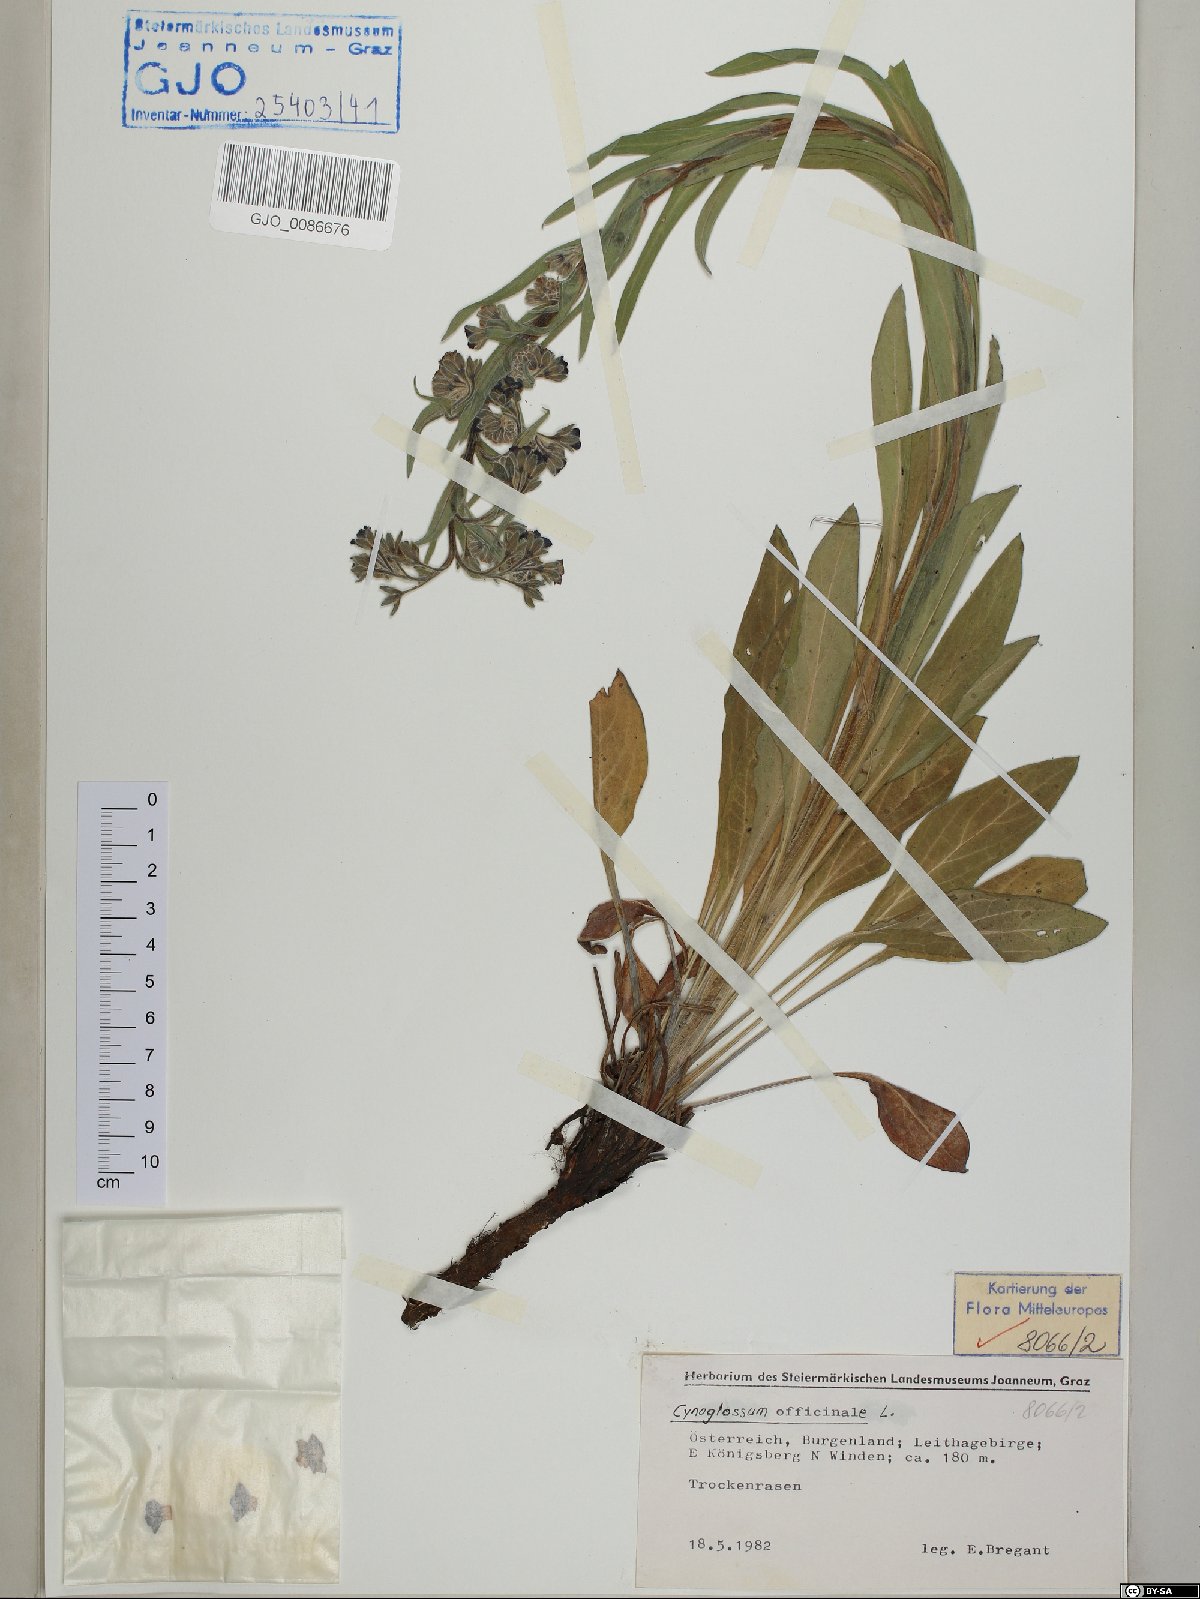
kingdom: Plantae
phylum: Tracheophyta
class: Magnoliopsida
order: Boraginales
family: Boraginaceae
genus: Cynoglossum
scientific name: Cynoglossum officinale
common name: Hound's-tongue
